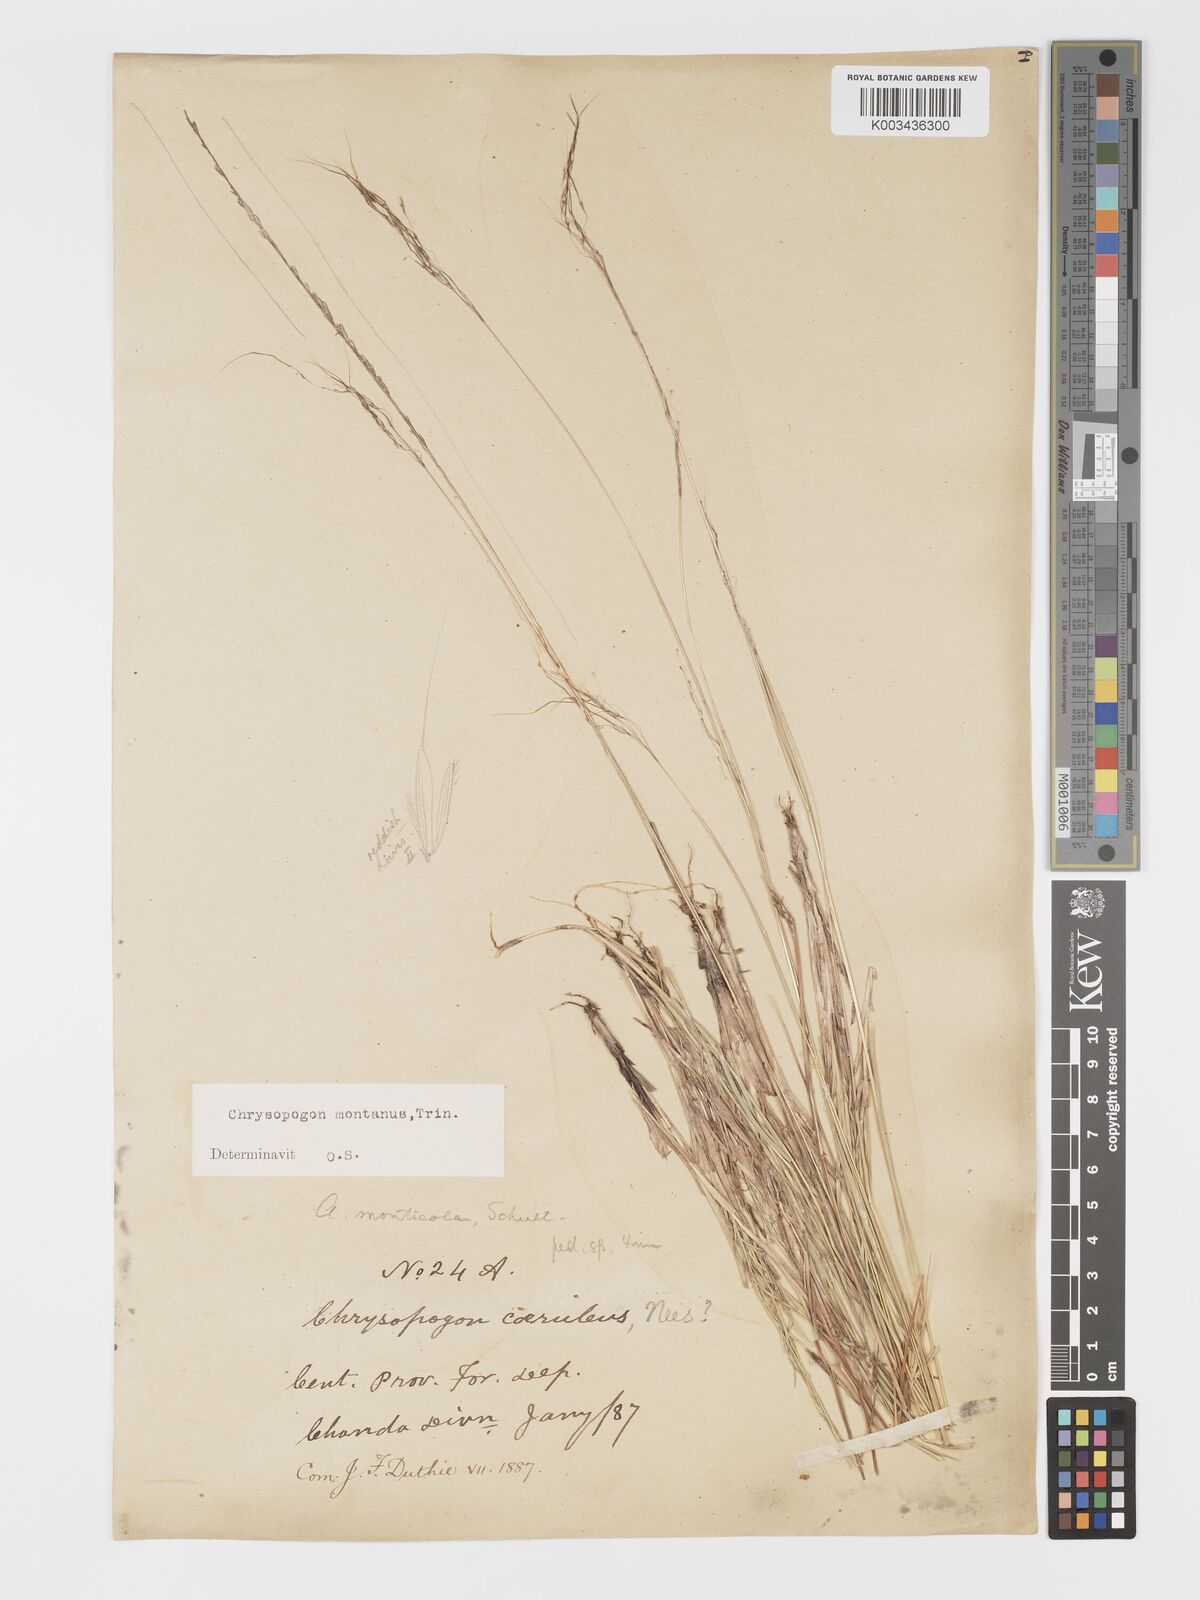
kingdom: Plantae
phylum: Tracheophyta
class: Liliopsida
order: Poales
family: Poaceae
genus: Chrysopogon
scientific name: Chrysopogon fulvus
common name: Red false beardgrass
